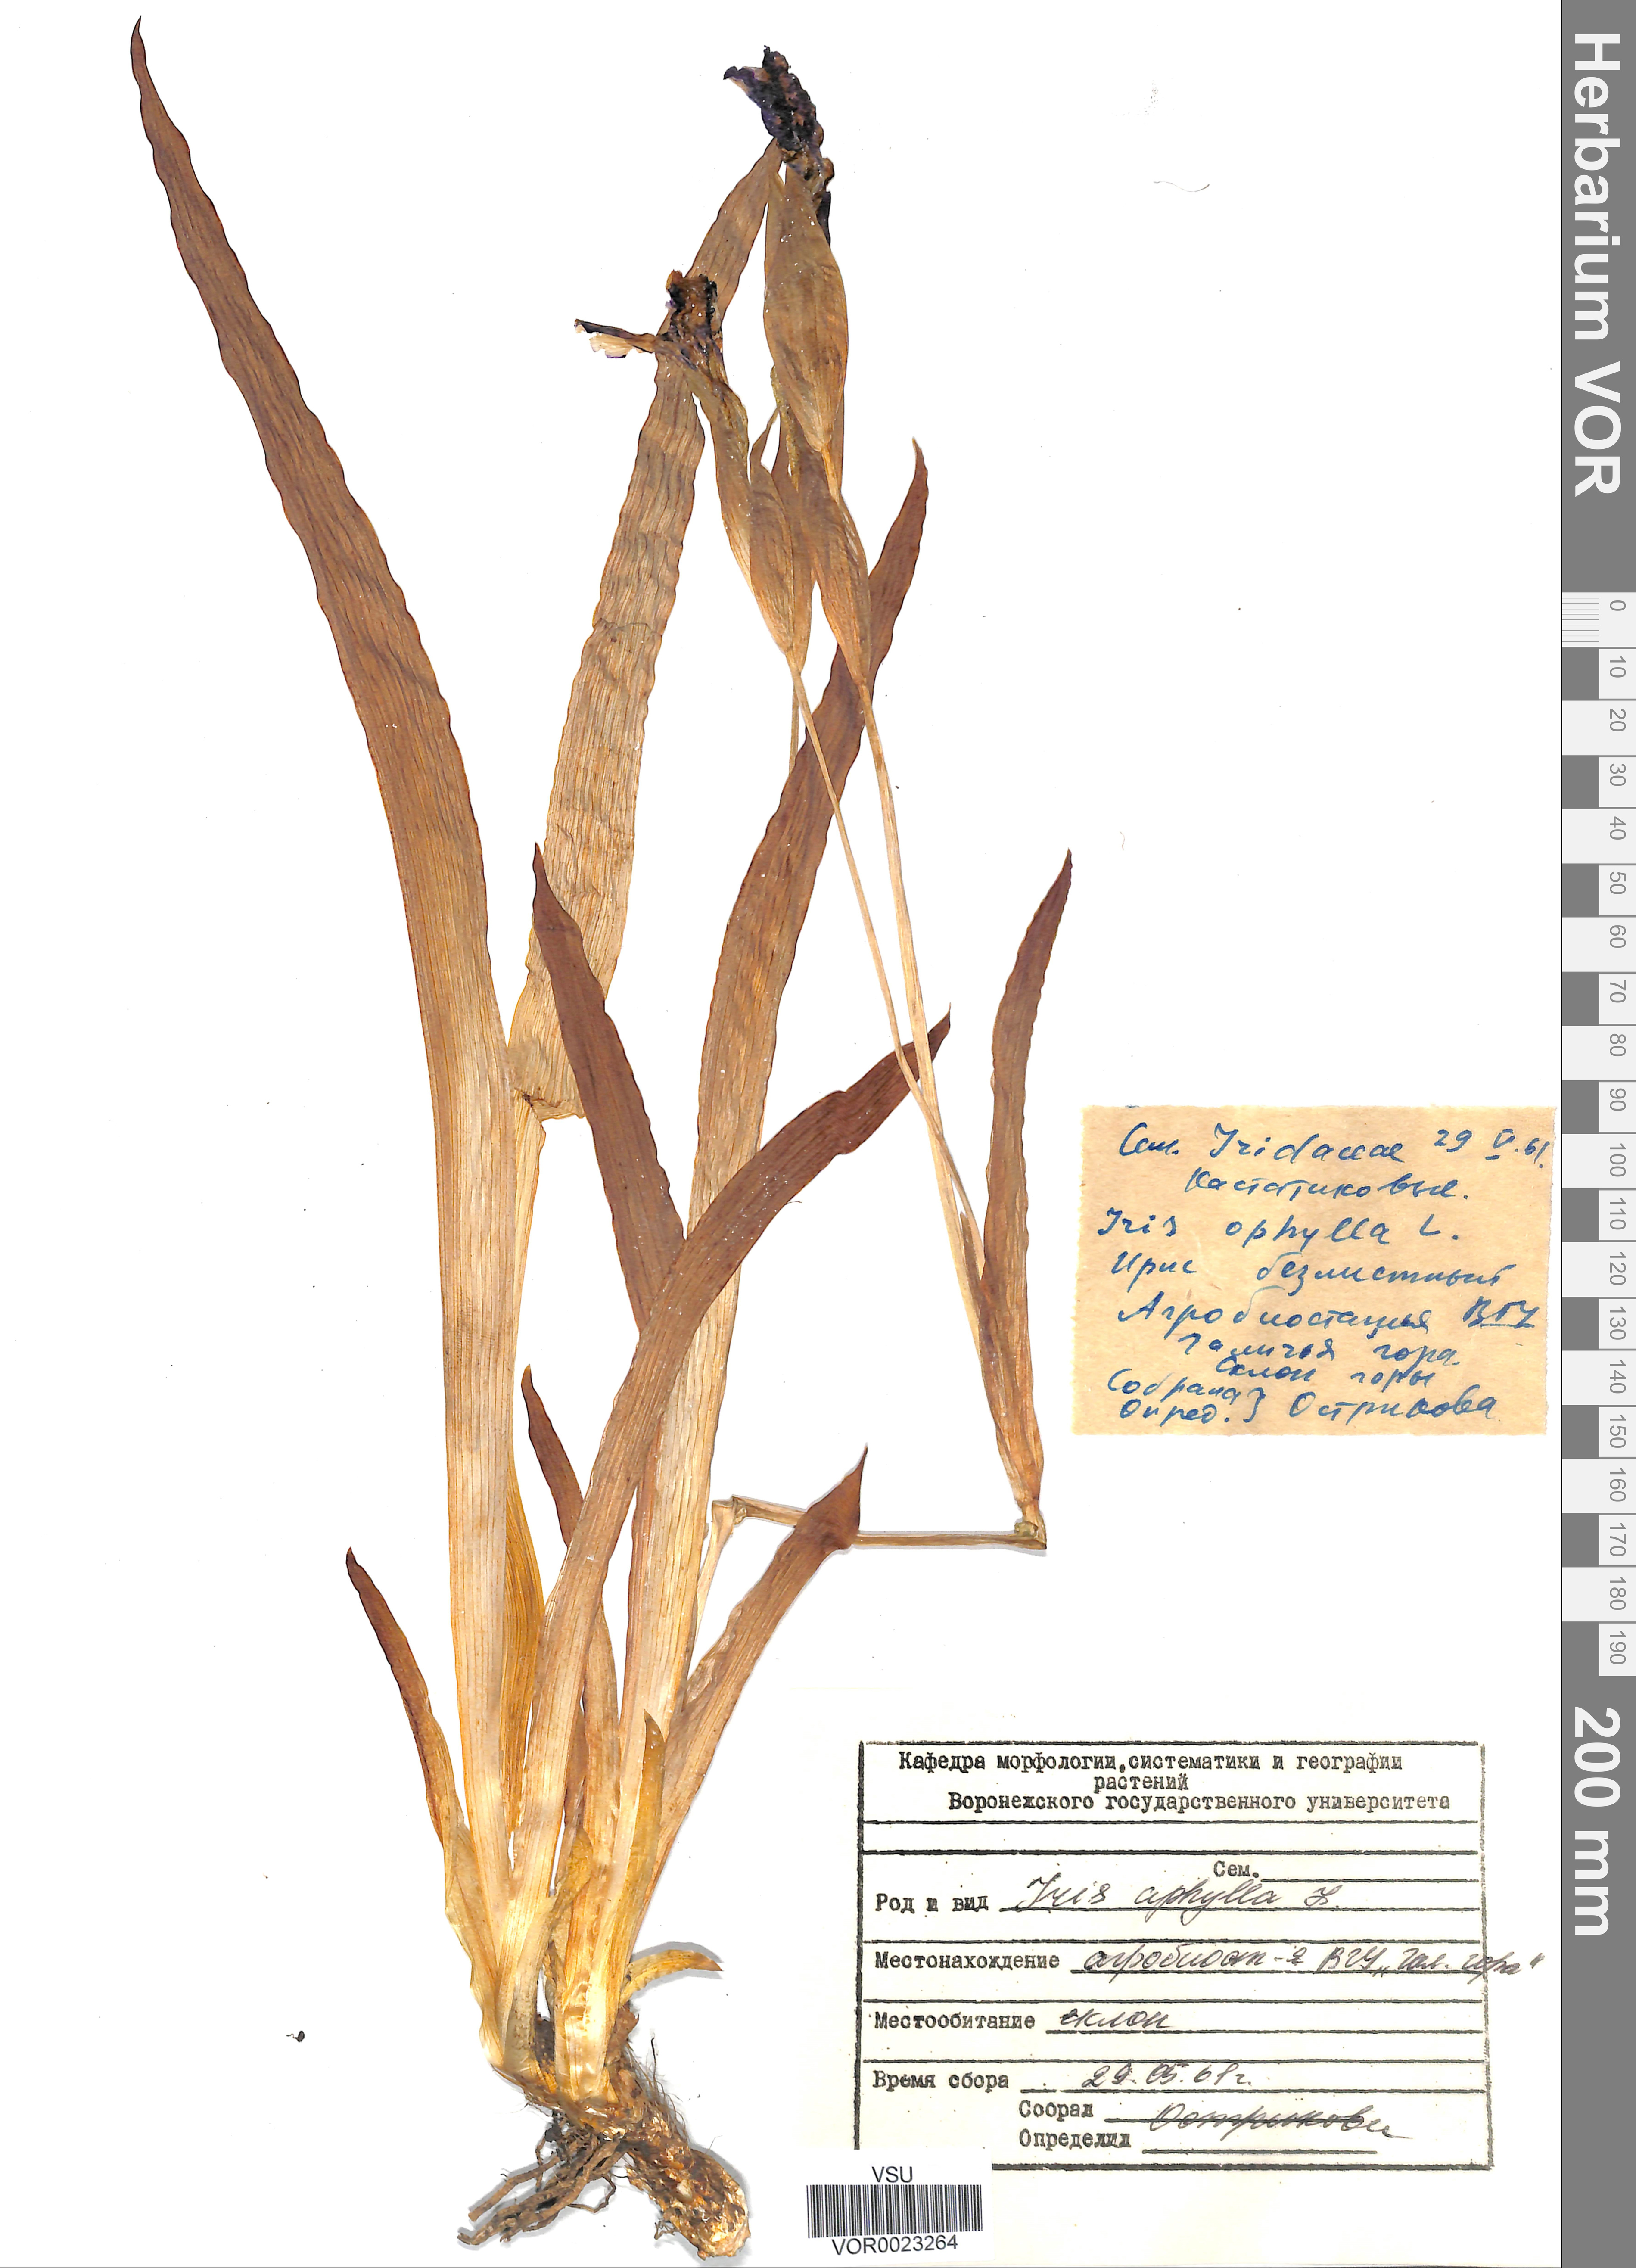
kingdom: Plantae
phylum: Tracheophyta
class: Liliopsida
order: Asparagales
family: Iridaceae
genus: Iris
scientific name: Iris aphylla
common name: Stool iris
